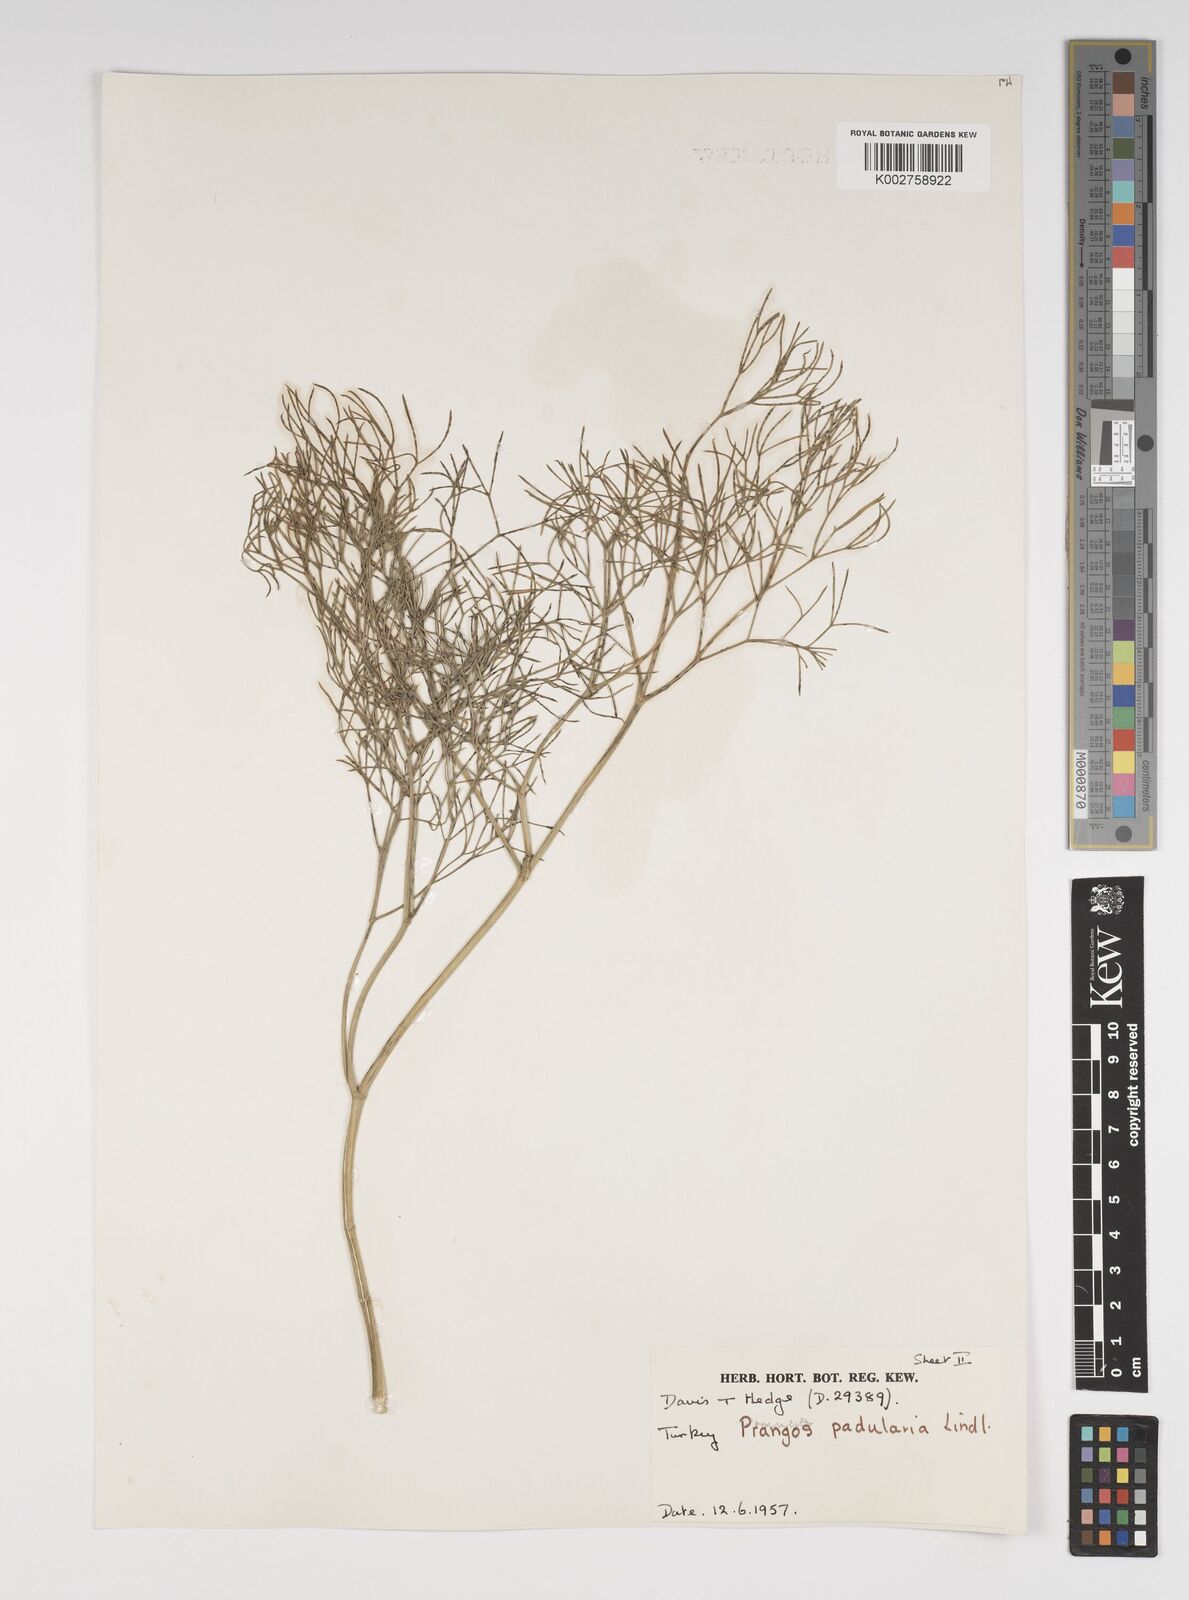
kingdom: Plantae
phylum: Tracheophyta
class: Magnoliopsida
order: Apiales
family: Apiaceae
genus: Prangos
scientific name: Prangos pabularia
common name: Yugan
